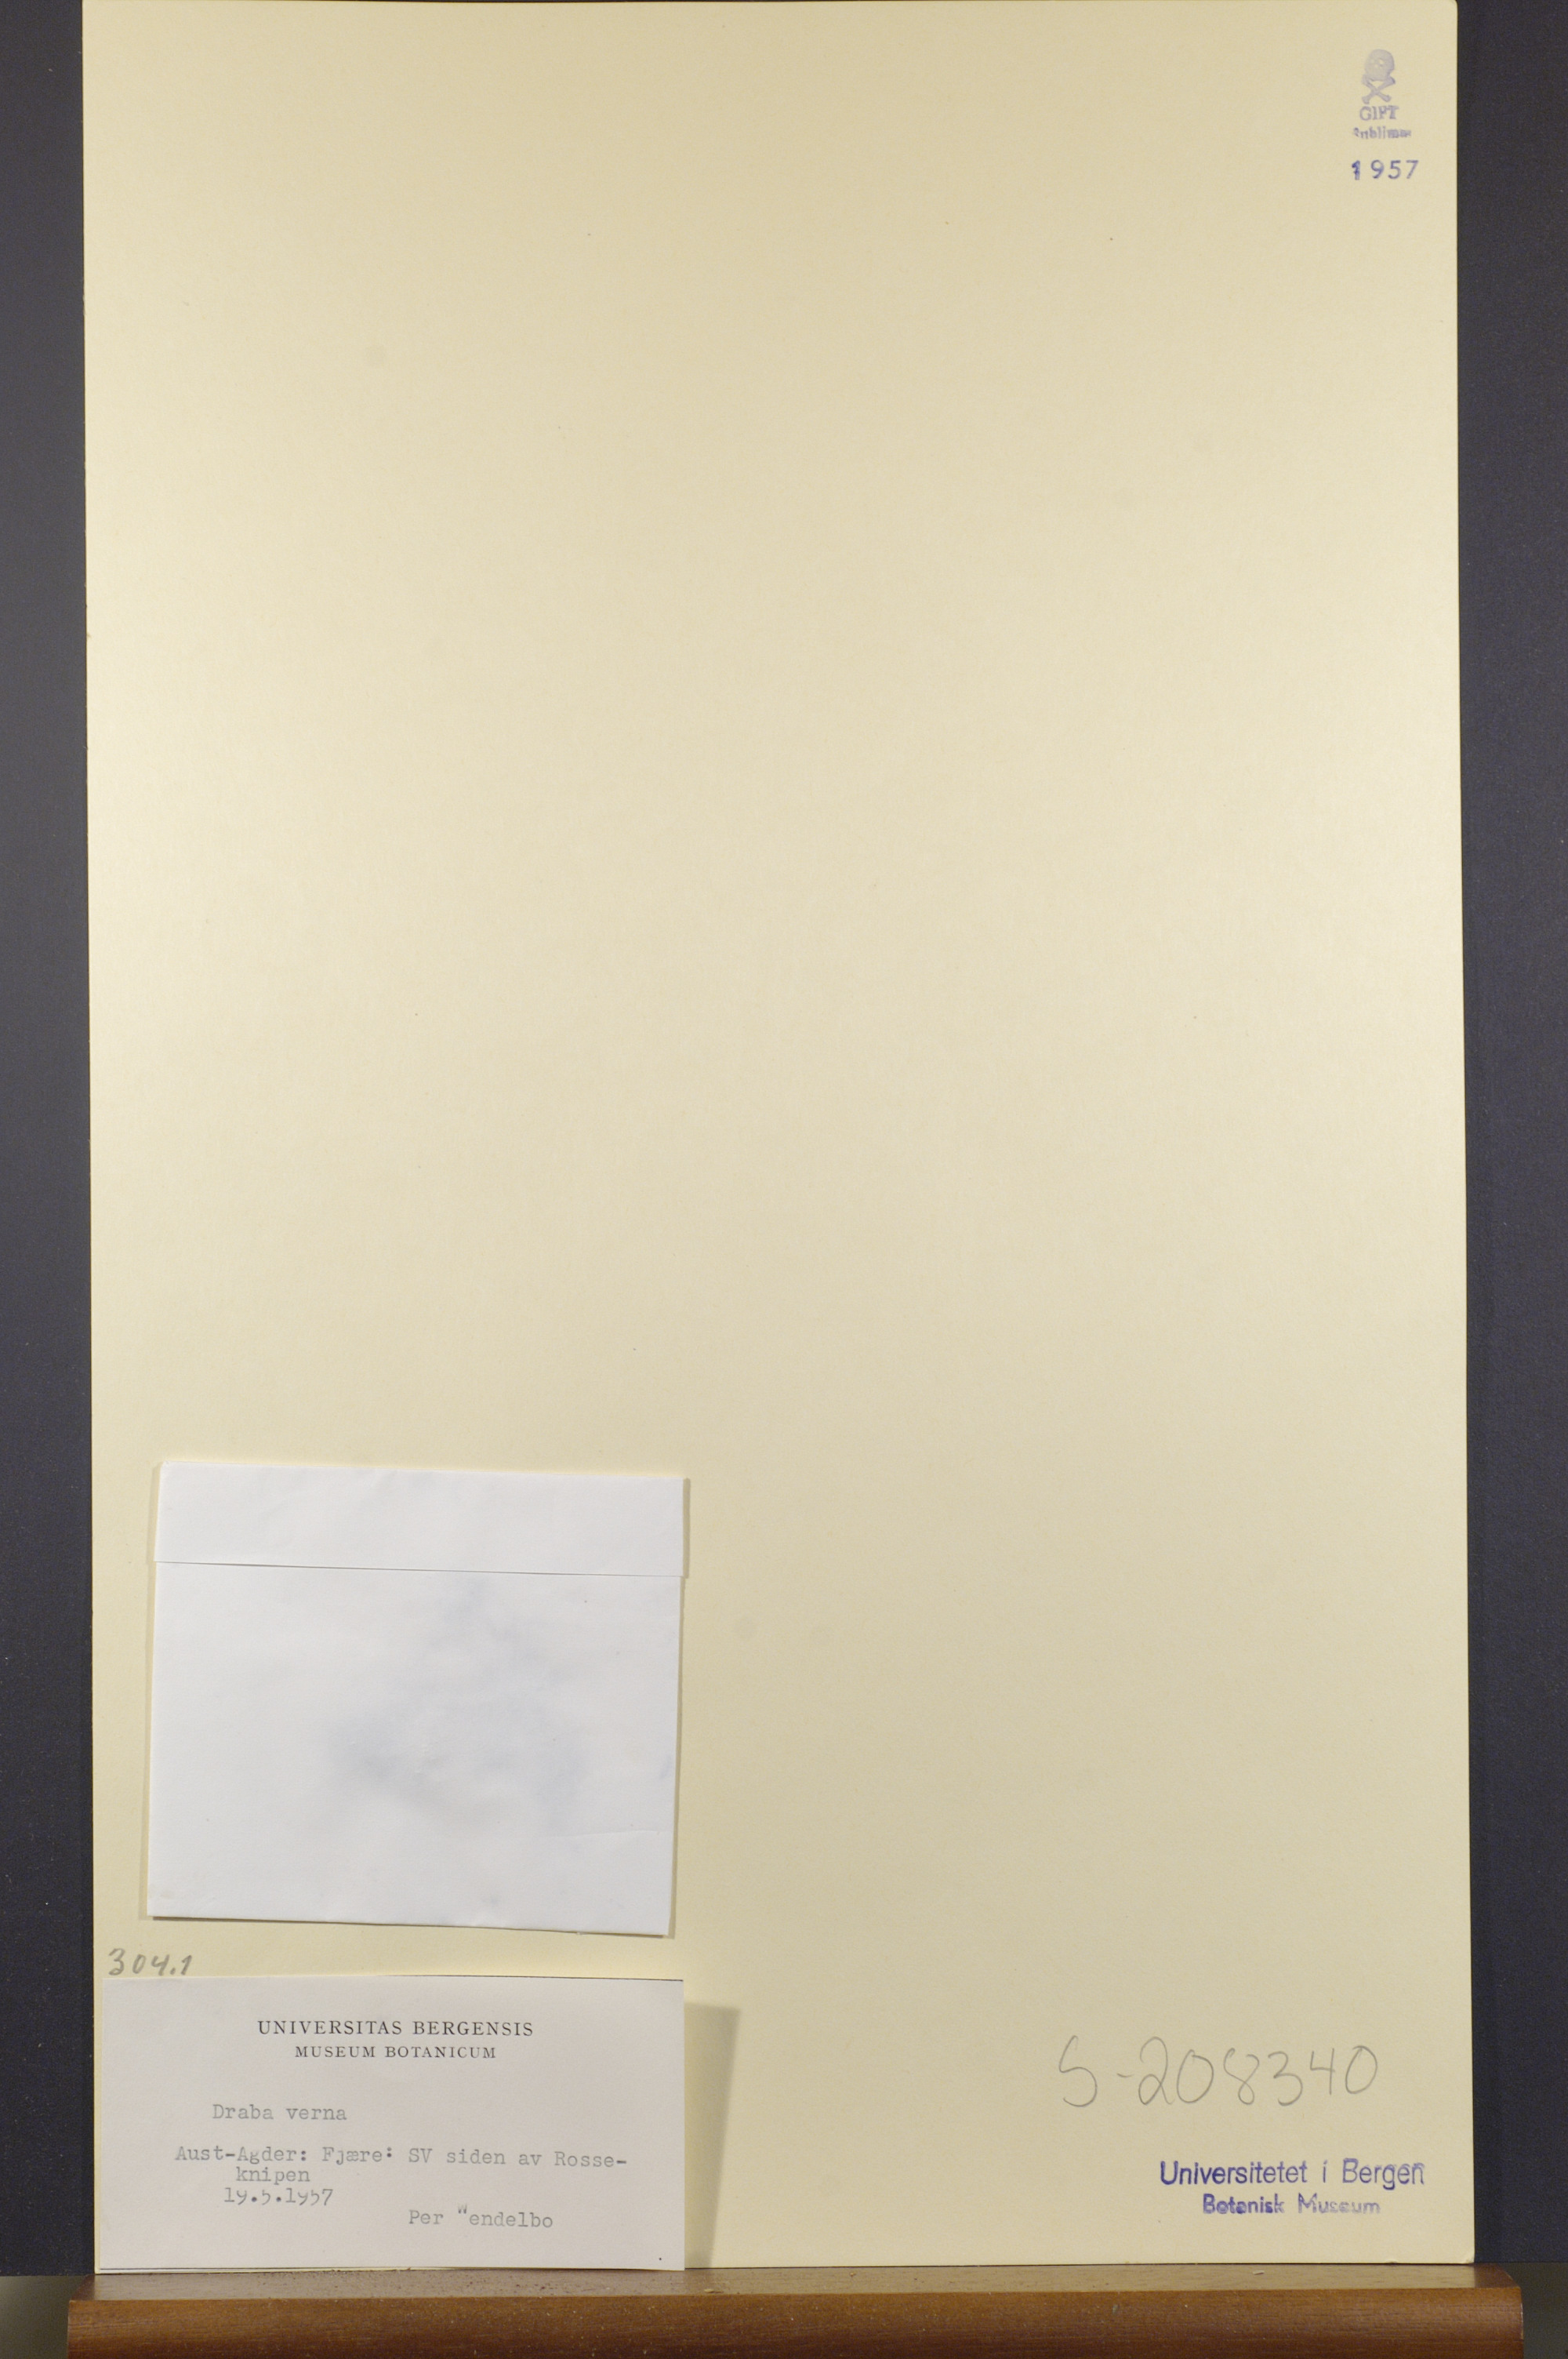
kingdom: Plantae
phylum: Tracheophyta
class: Magnoliopsida
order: Brassicales
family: Brassicaceae
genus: Draba
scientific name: Draba verna
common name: Spring draba
